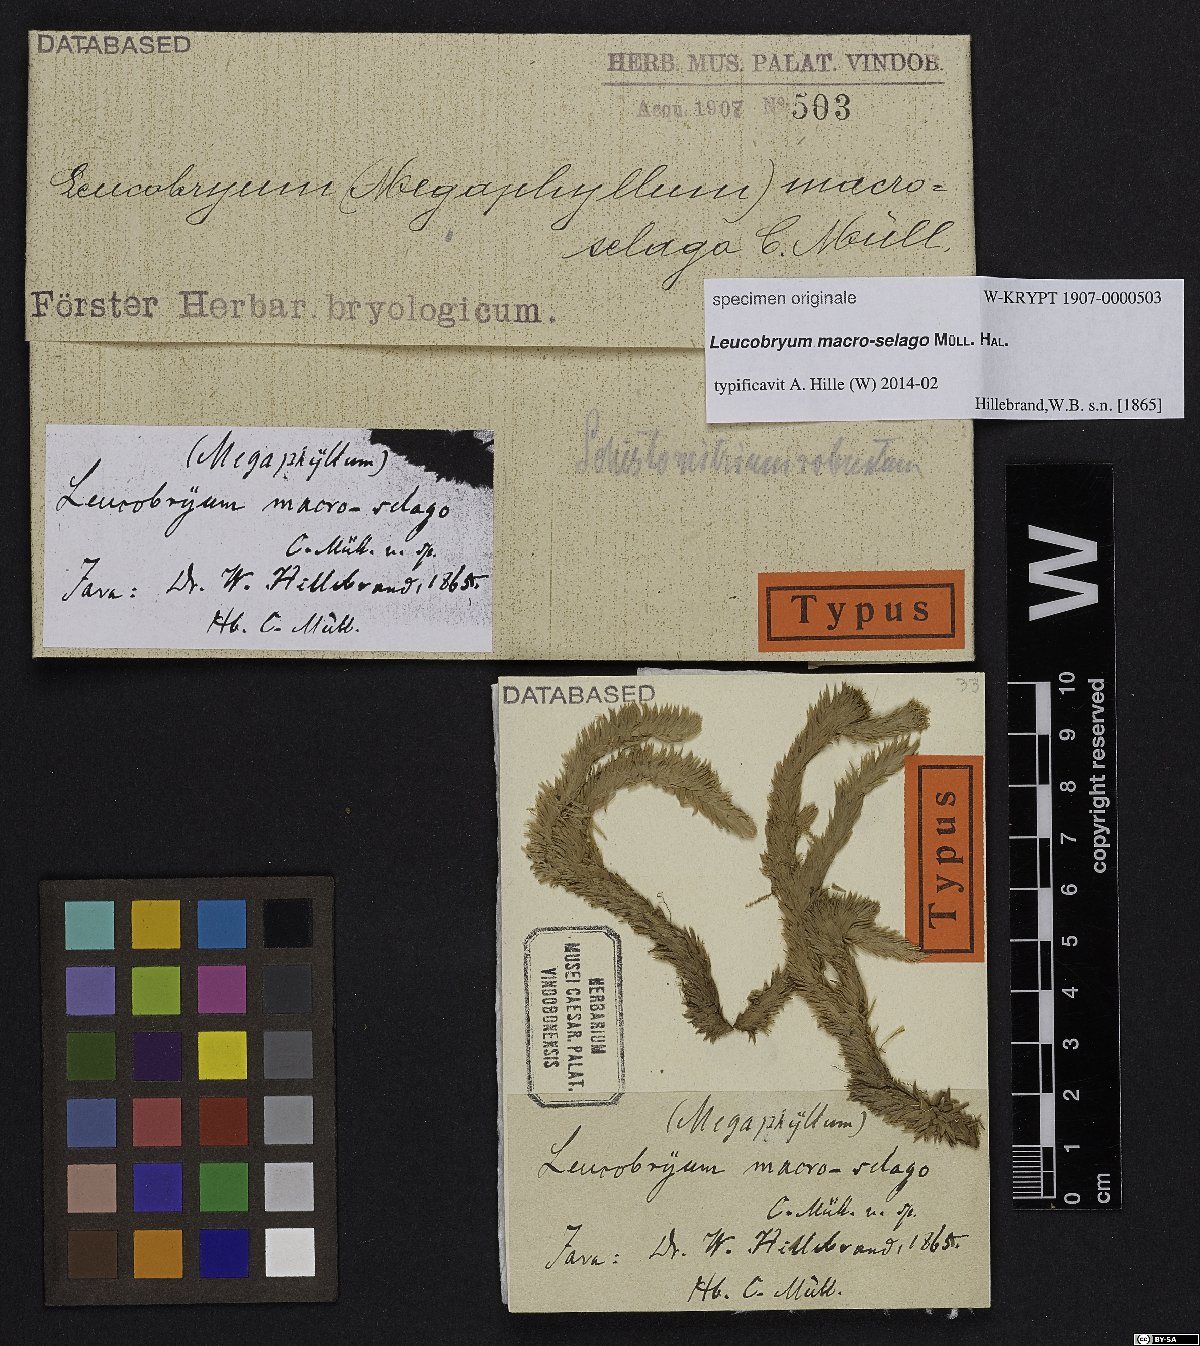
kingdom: Plantae
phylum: Bryophyta
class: Bryopsida
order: Dicranales
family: Leucobryaceae
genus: Leucobryum
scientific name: Leucobryum
